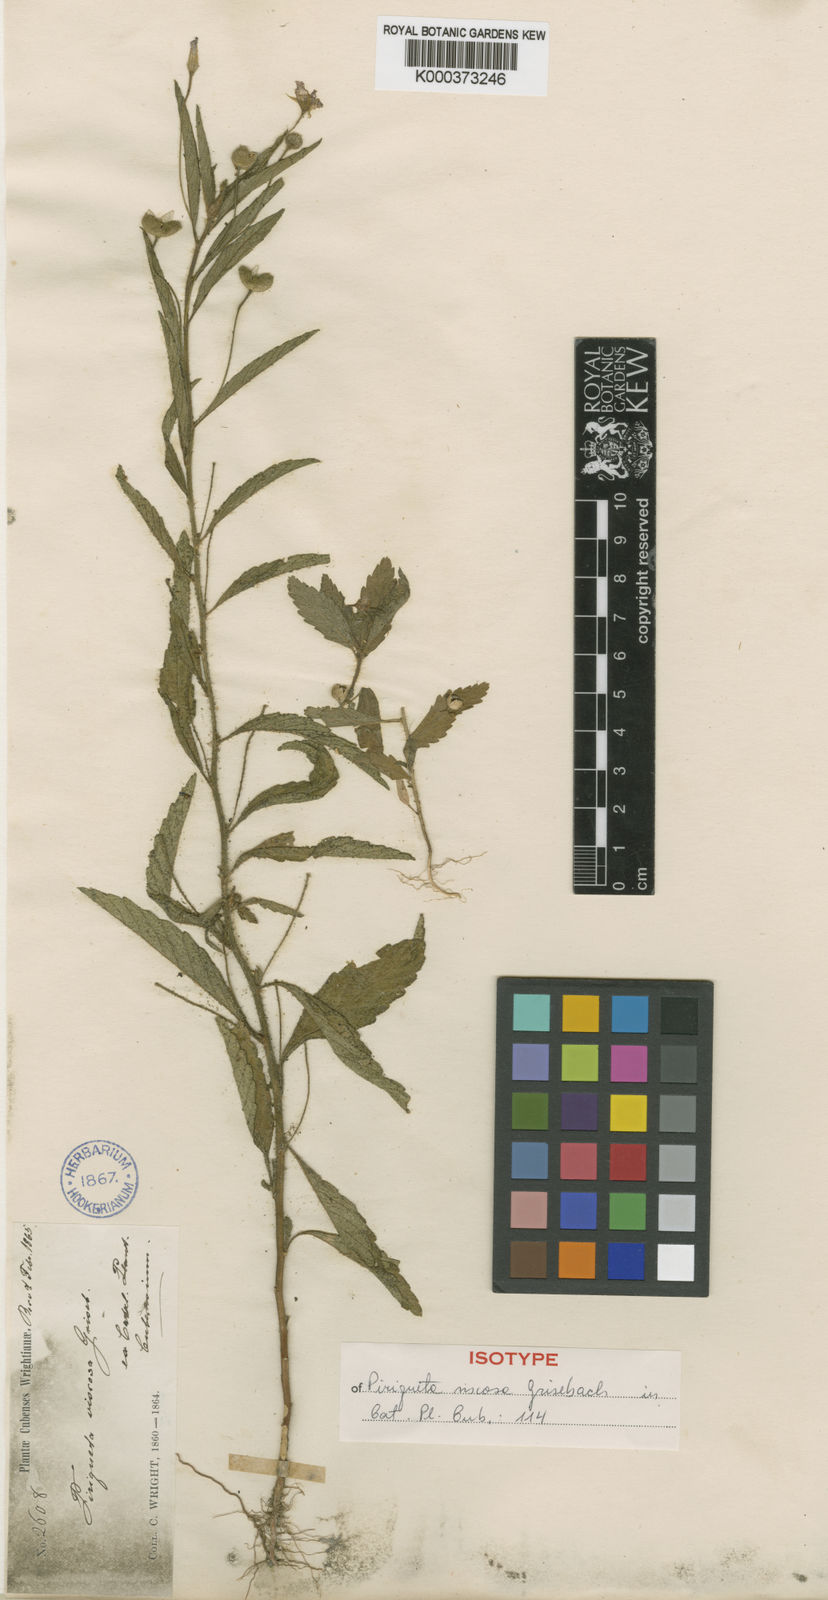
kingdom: Plantae
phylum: Tracheophyta
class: Magnoliopsida
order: Malpighiales
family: Turneraceae
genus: Piriqueta
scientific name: Piriqueta viscosa
